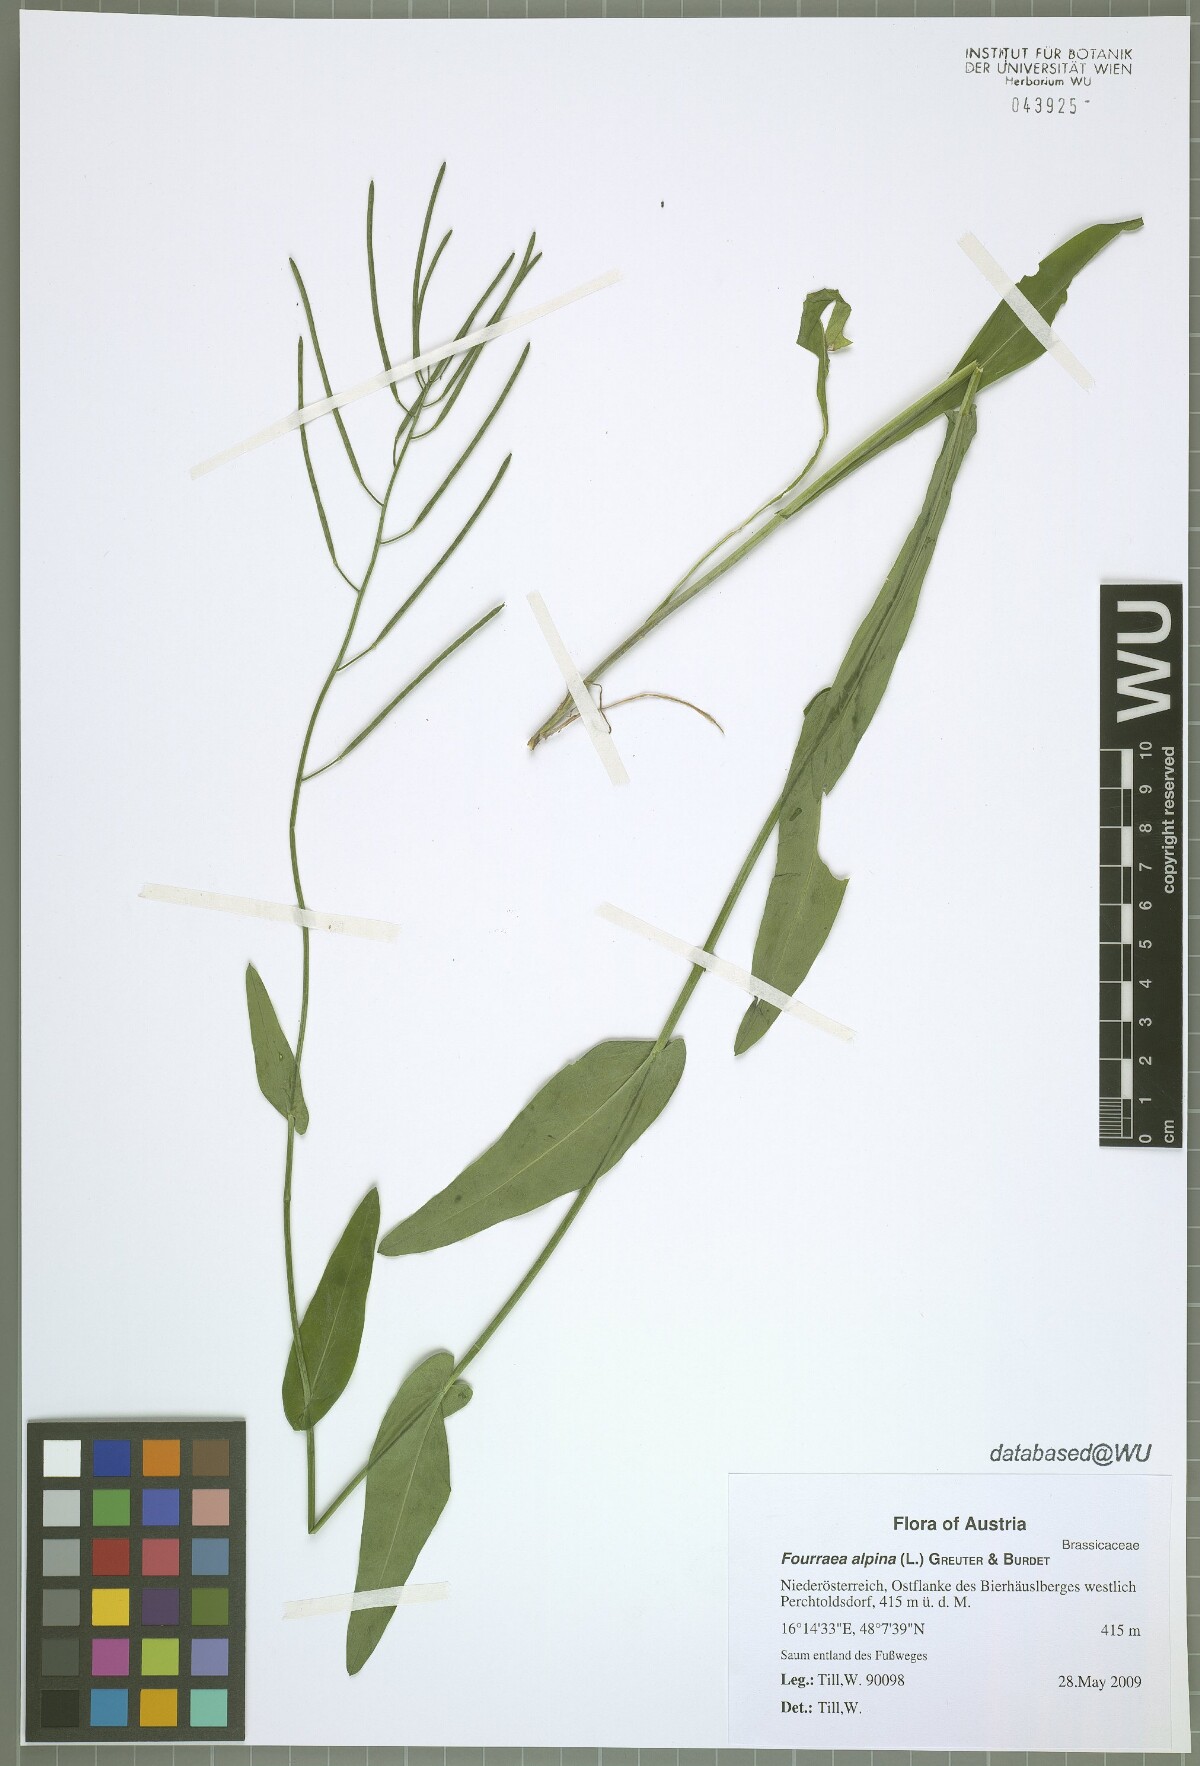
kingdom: Plantae
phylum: Tracheophyta
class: Magnoliopsida
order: Brassicales
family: Brassicaceae
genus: Fourraea
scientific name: Fourraea alpina
